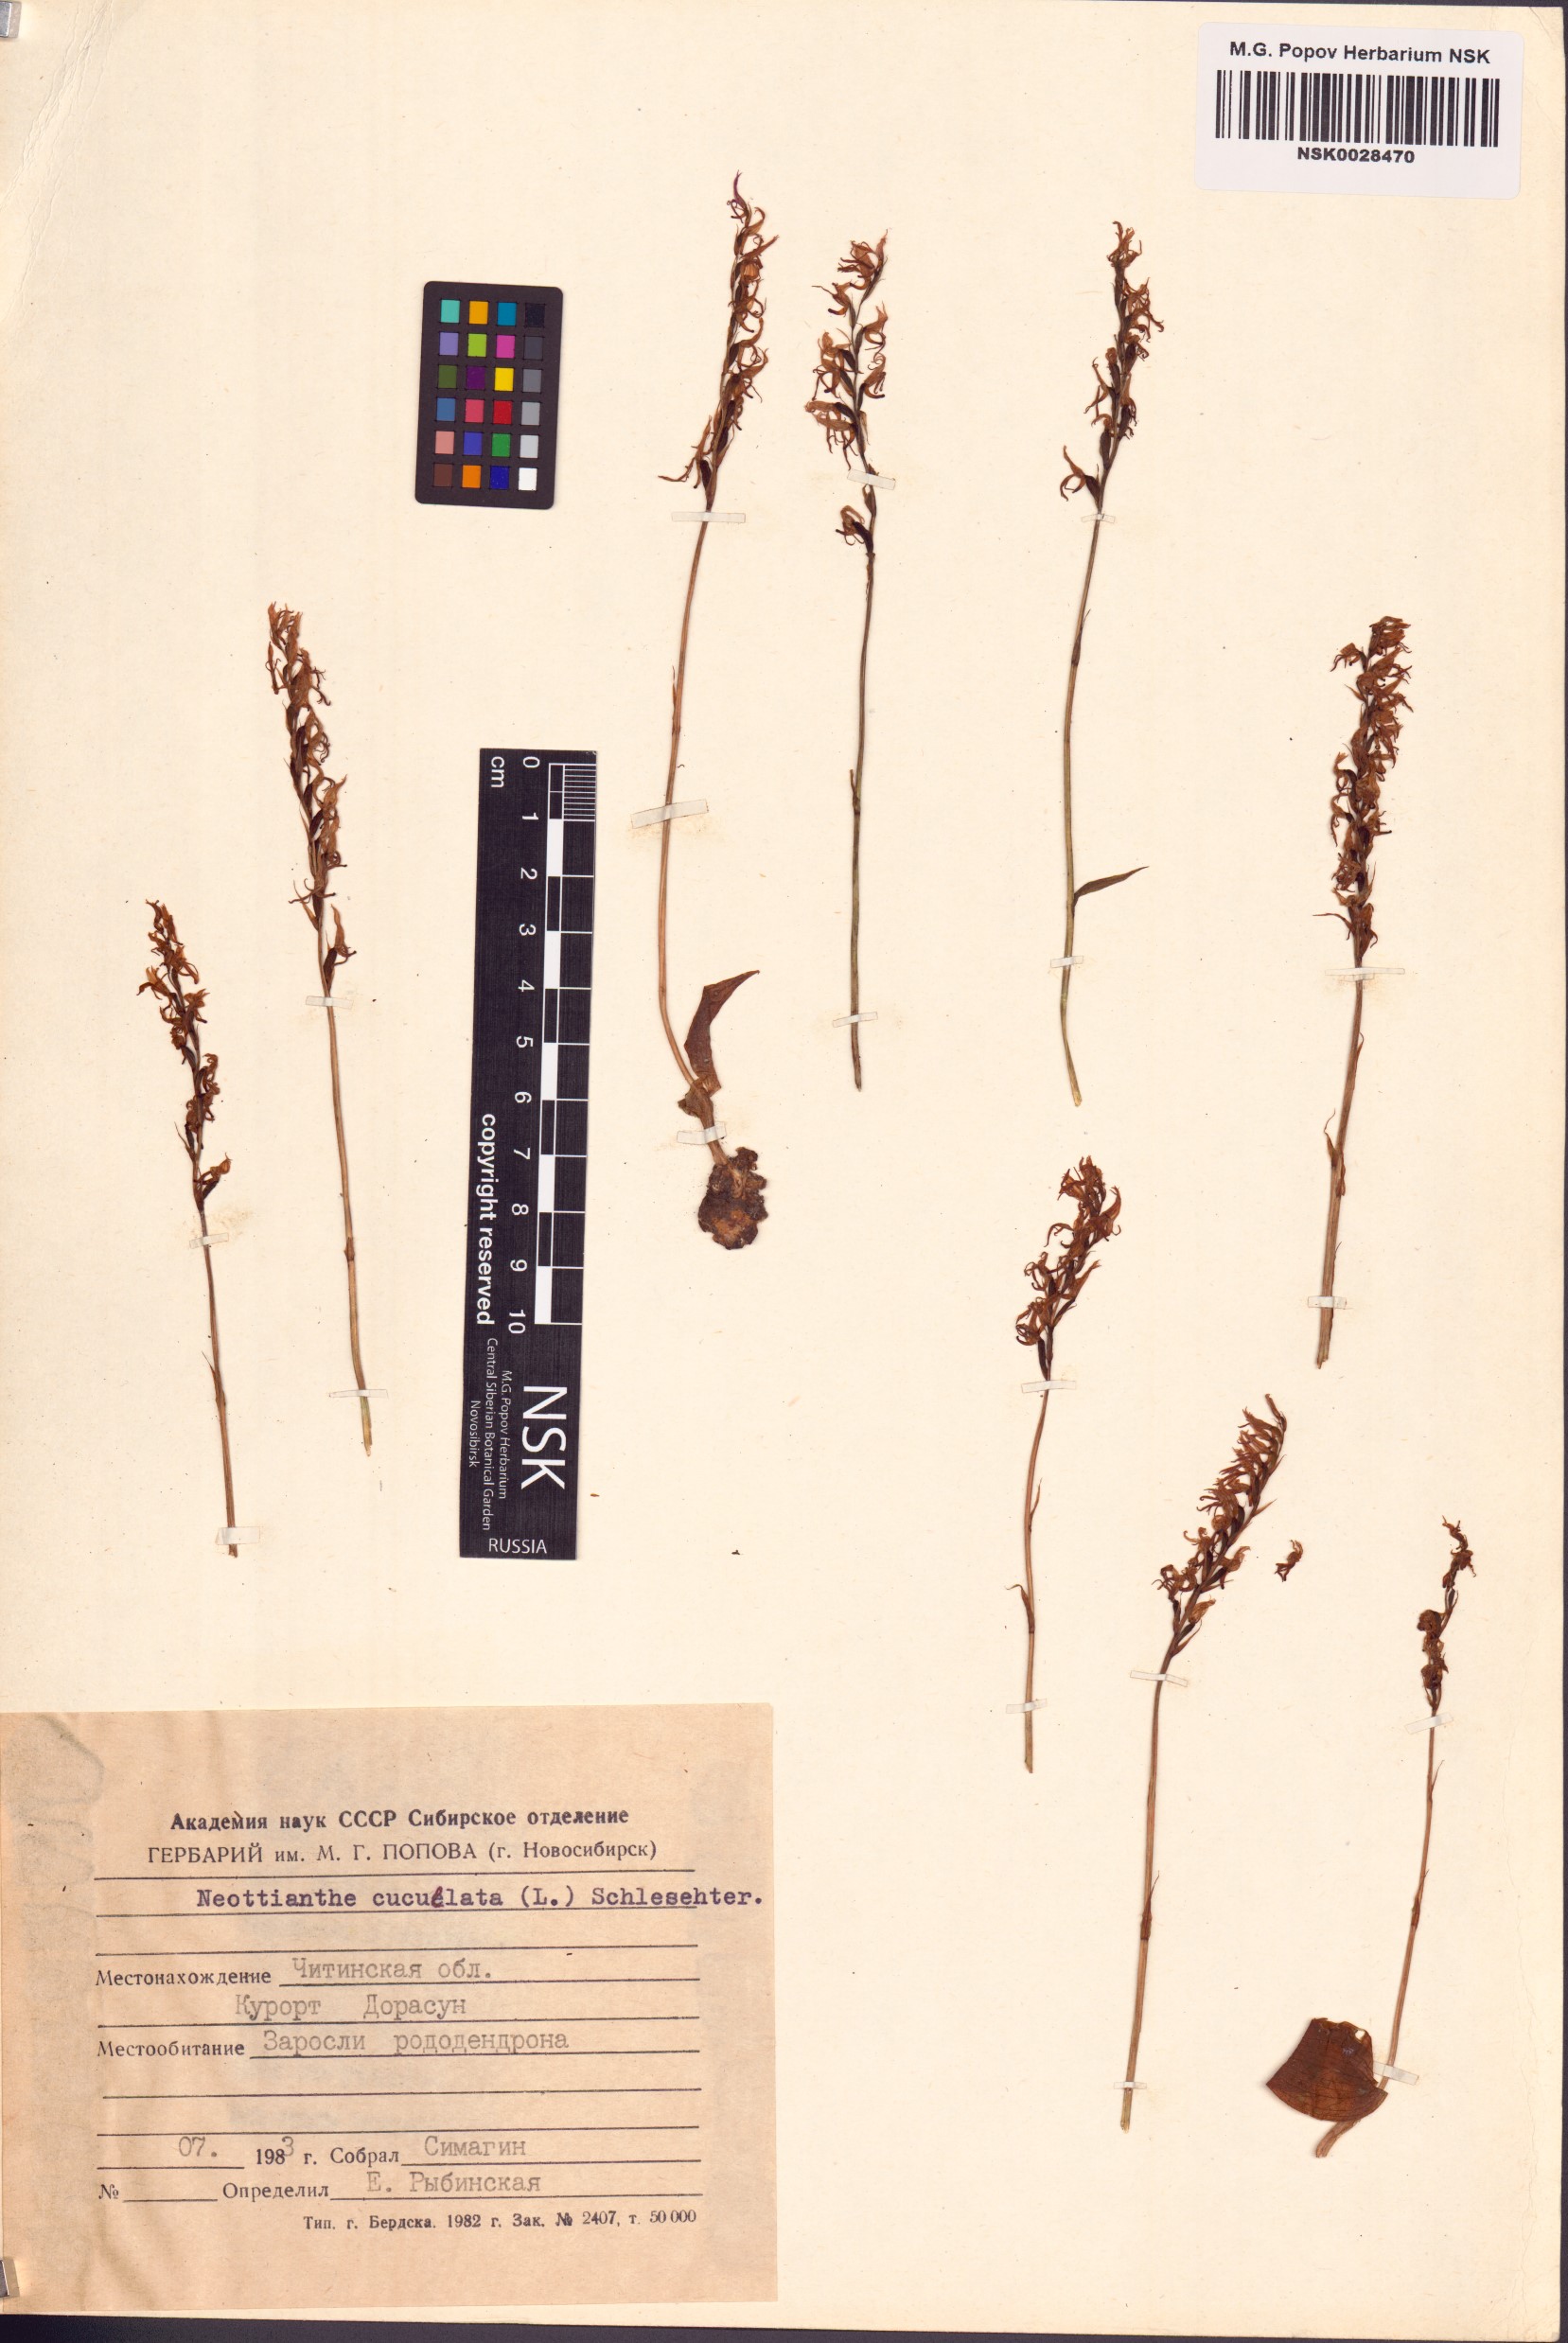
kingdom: Plantae
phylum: Tracheophyta
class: Liliopsida
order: Asparagales
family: Orchidaceae
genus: Hemipilia
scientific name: Hemipilia cucullata
